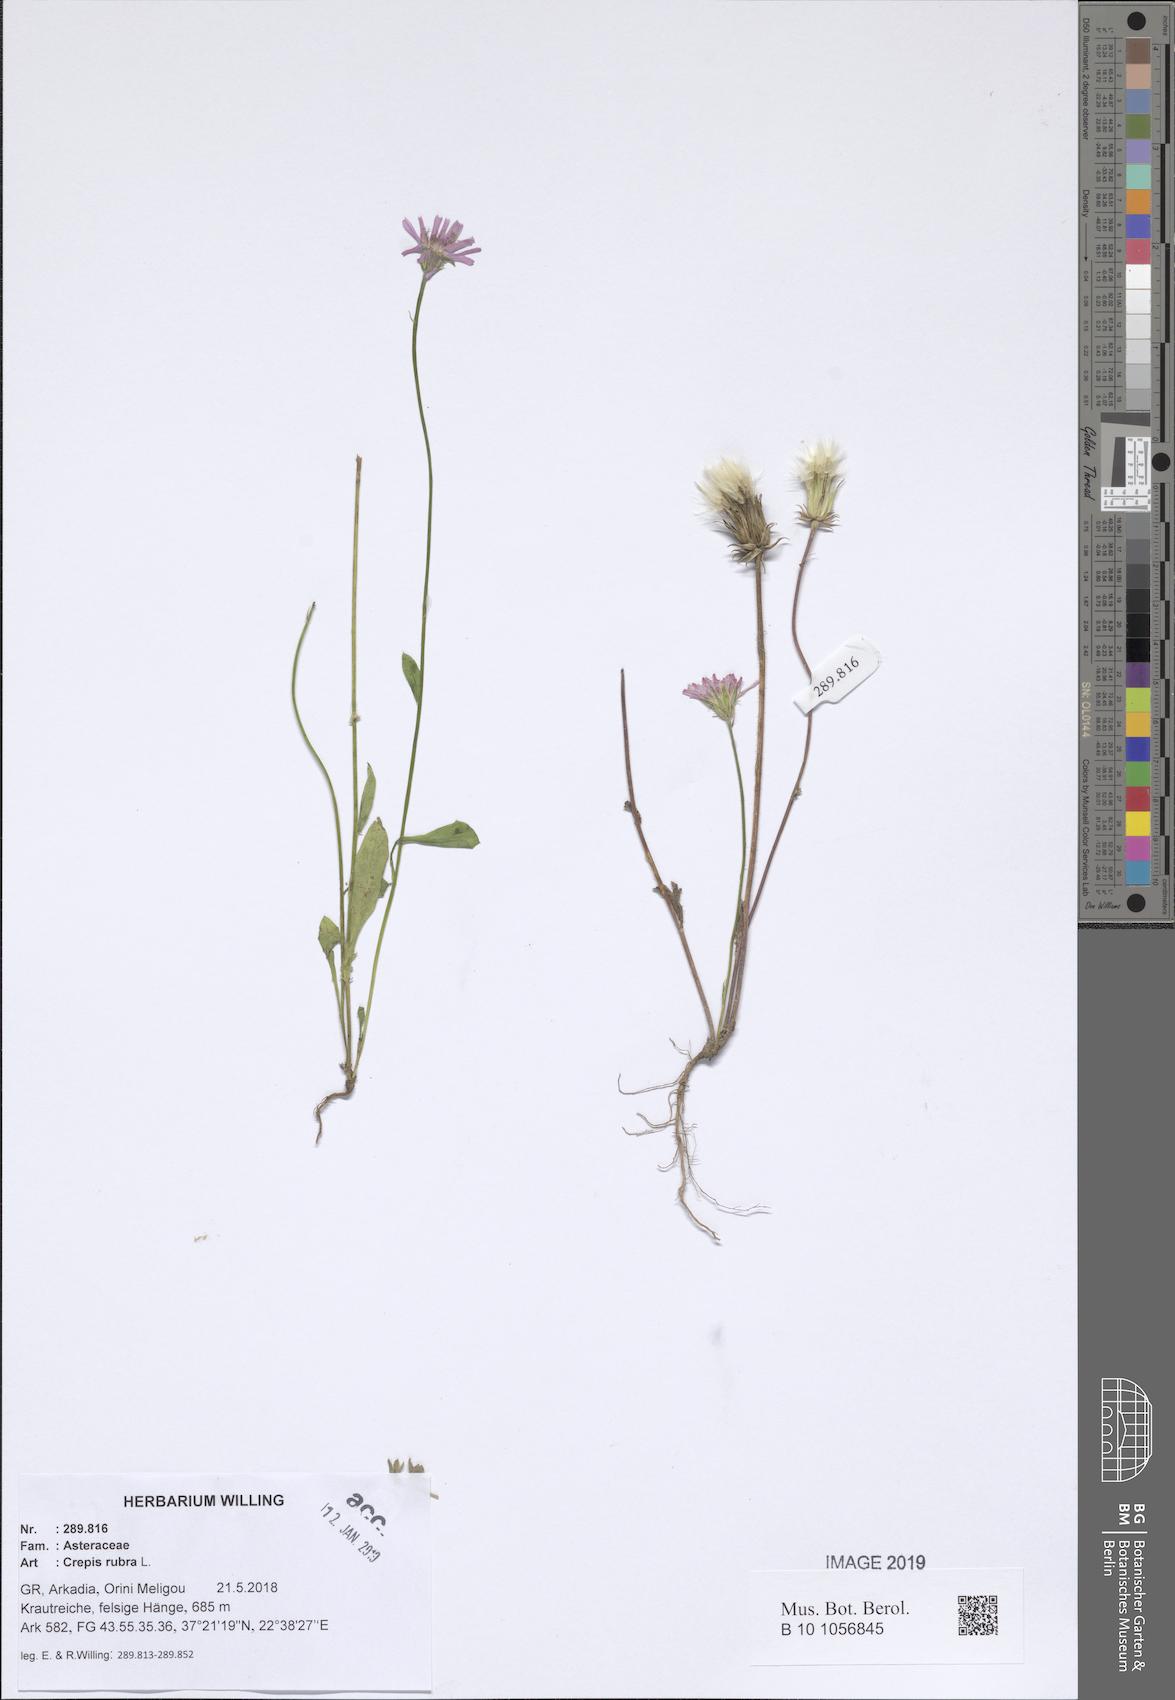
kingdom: Plantae
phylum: Tracheophyta
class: Magnoliopsida
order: Asterales
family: Asteraceae
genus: Crepis
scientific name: Crepis rubra
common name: Pink hawk's-beard
